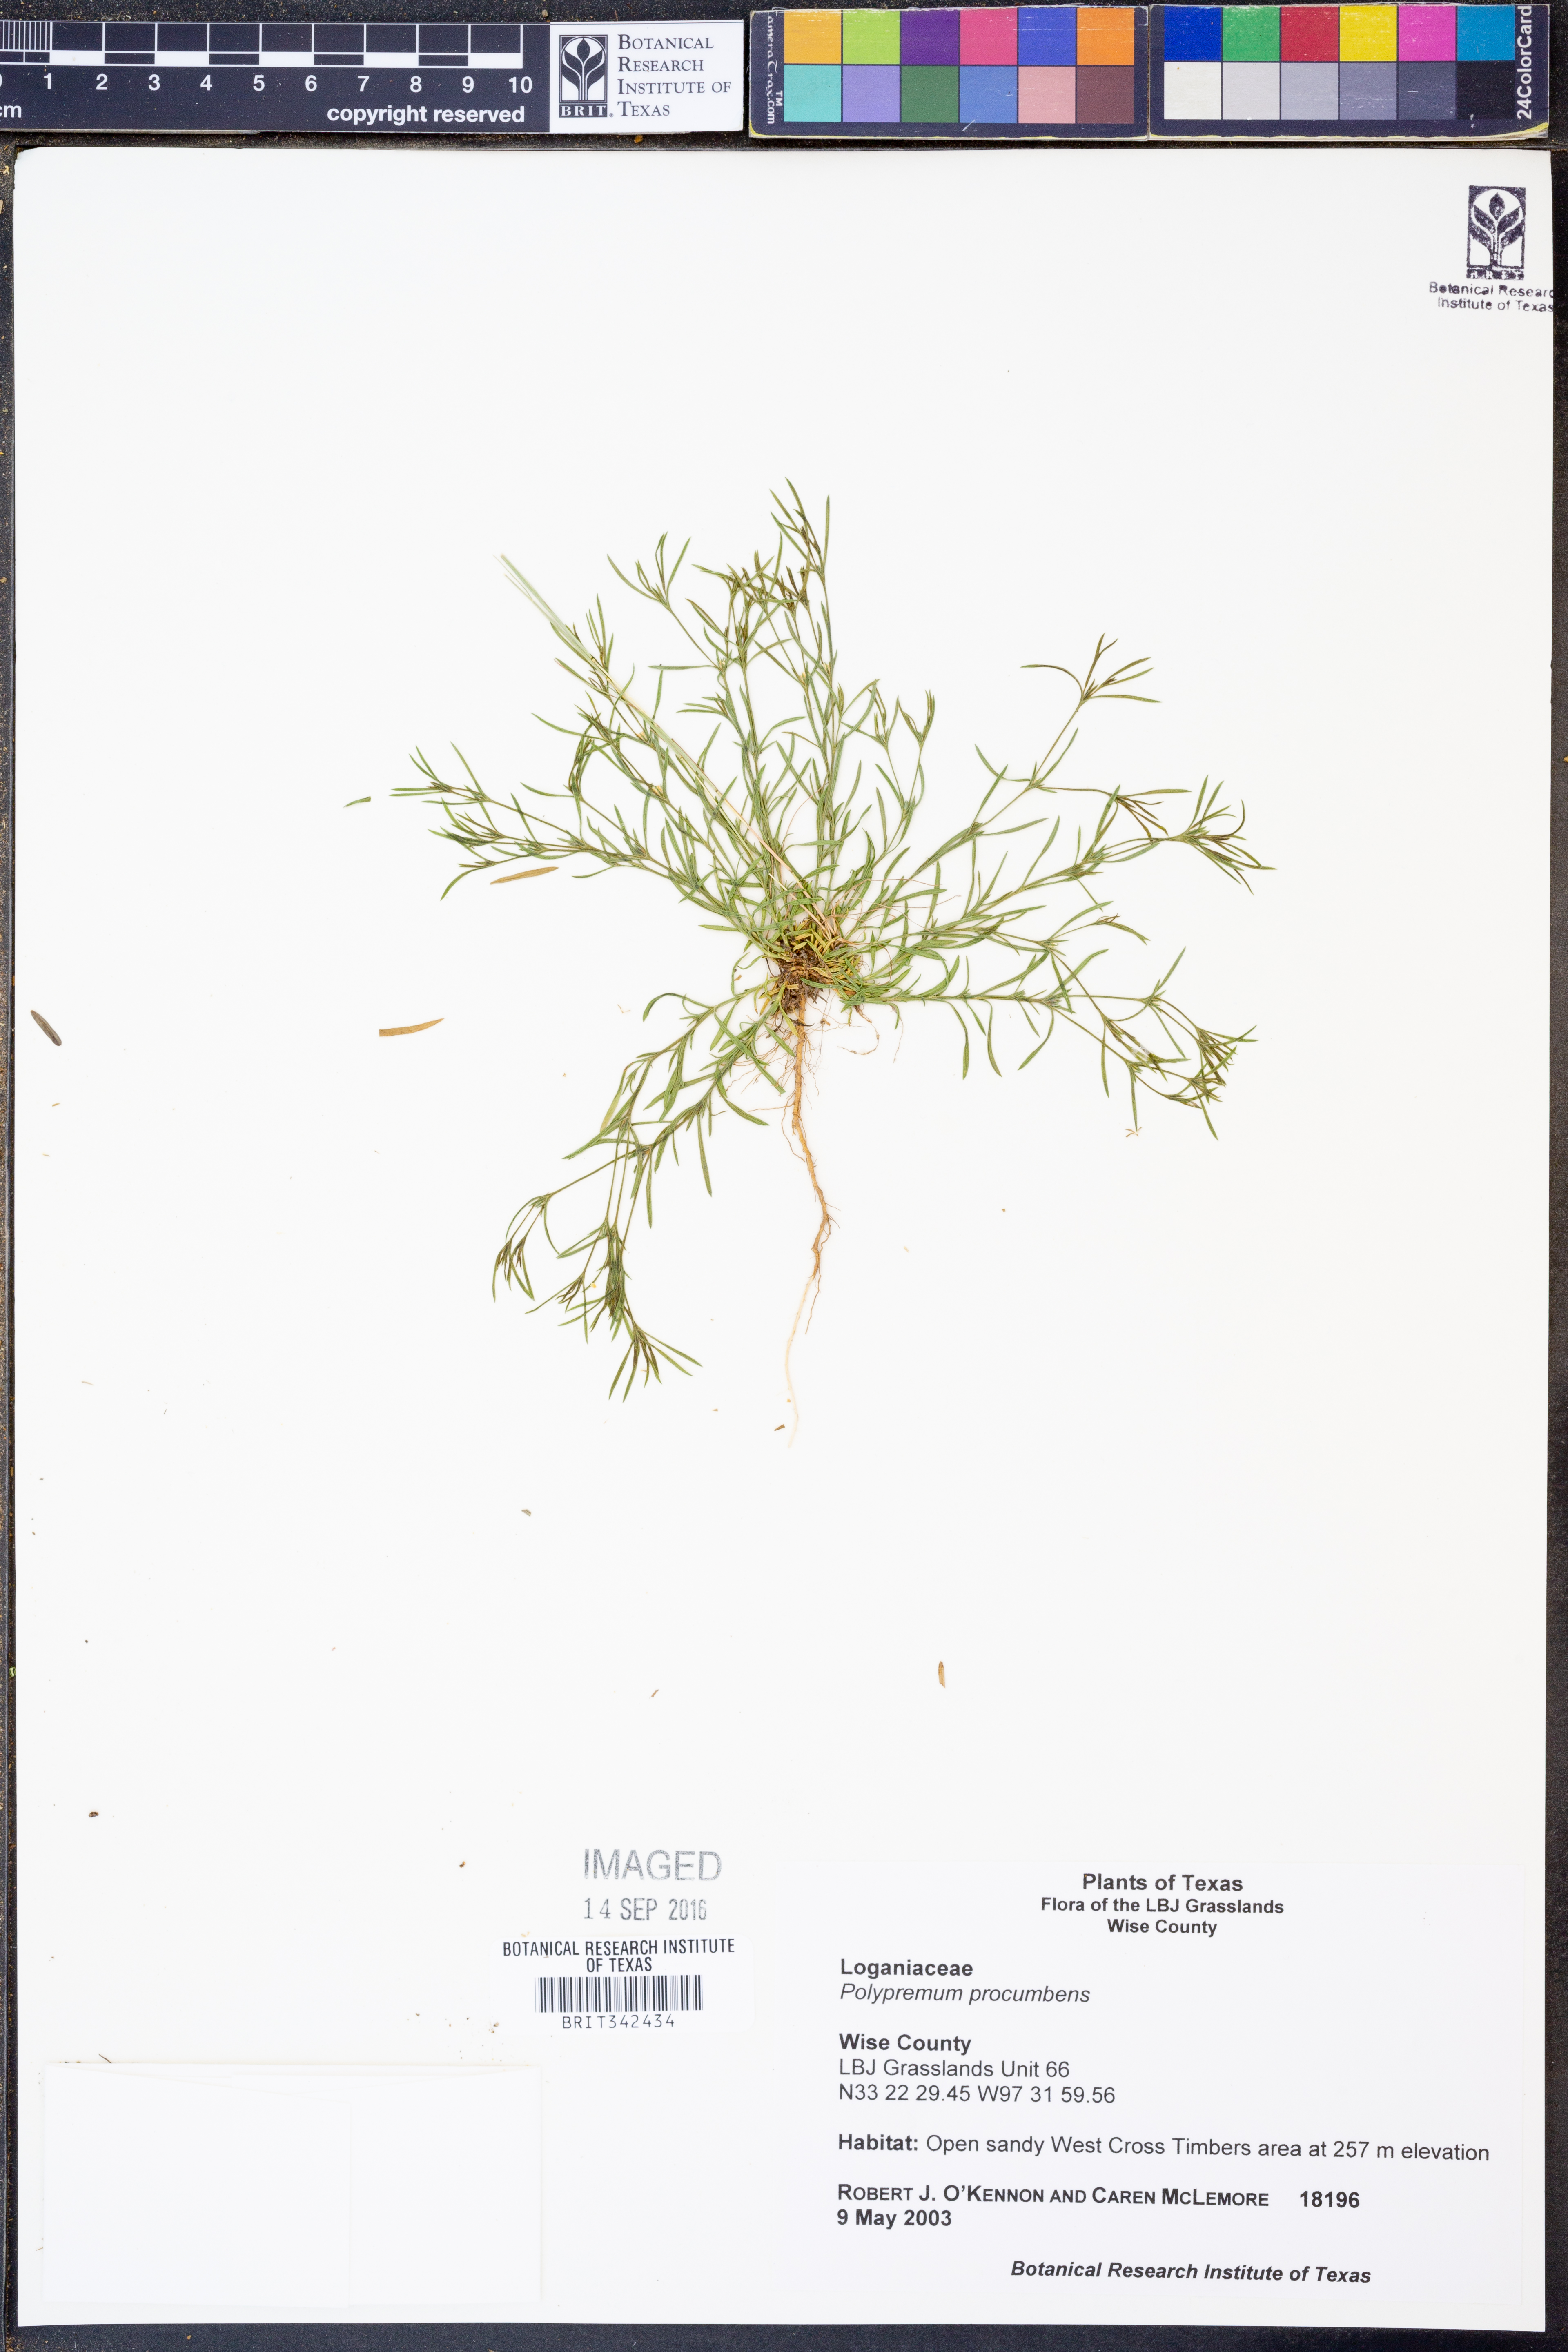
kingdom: Plantae
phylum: Tracheophyta
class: Magnoliopsida
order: Lamiales
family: Tetrachondraceae
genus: Polypremum
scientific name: Polypremum procumbens
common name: Juniper-leaf
